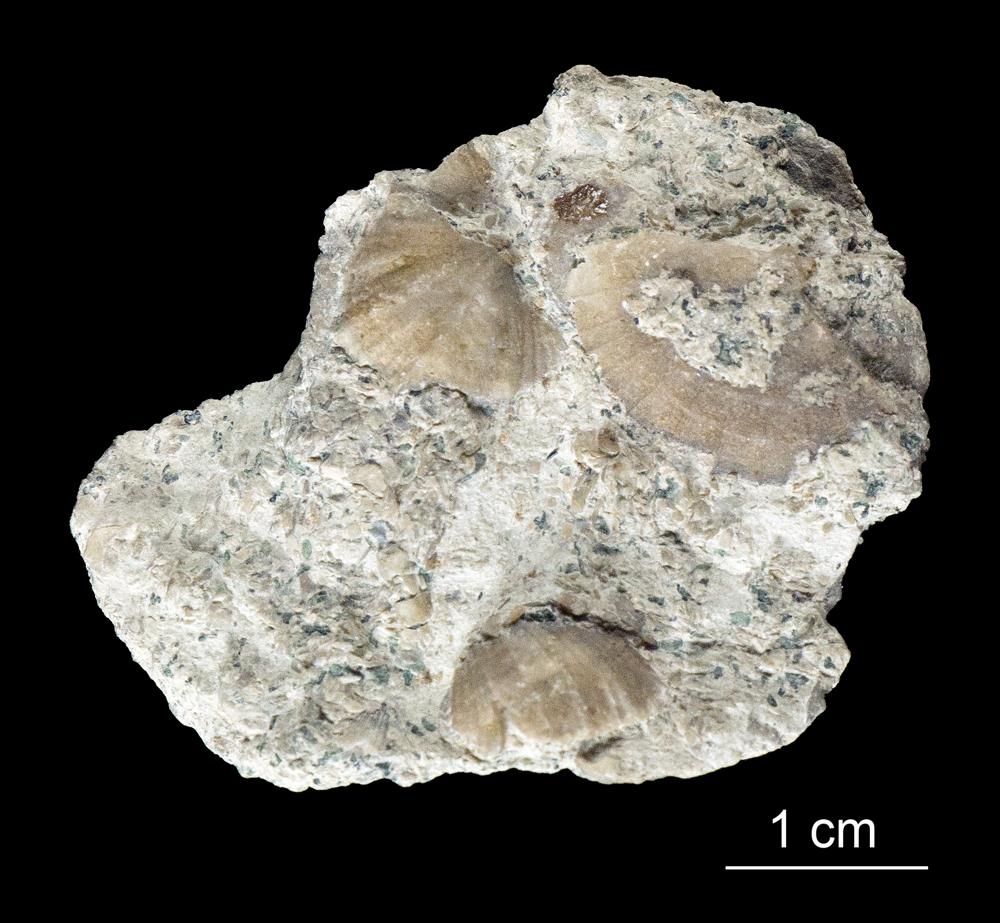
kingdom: Animalia
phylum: Brachiopoda
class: Rhynchonellata
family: Productorthidae
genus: Productorthis
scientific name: Productorthis Productus obtusus
